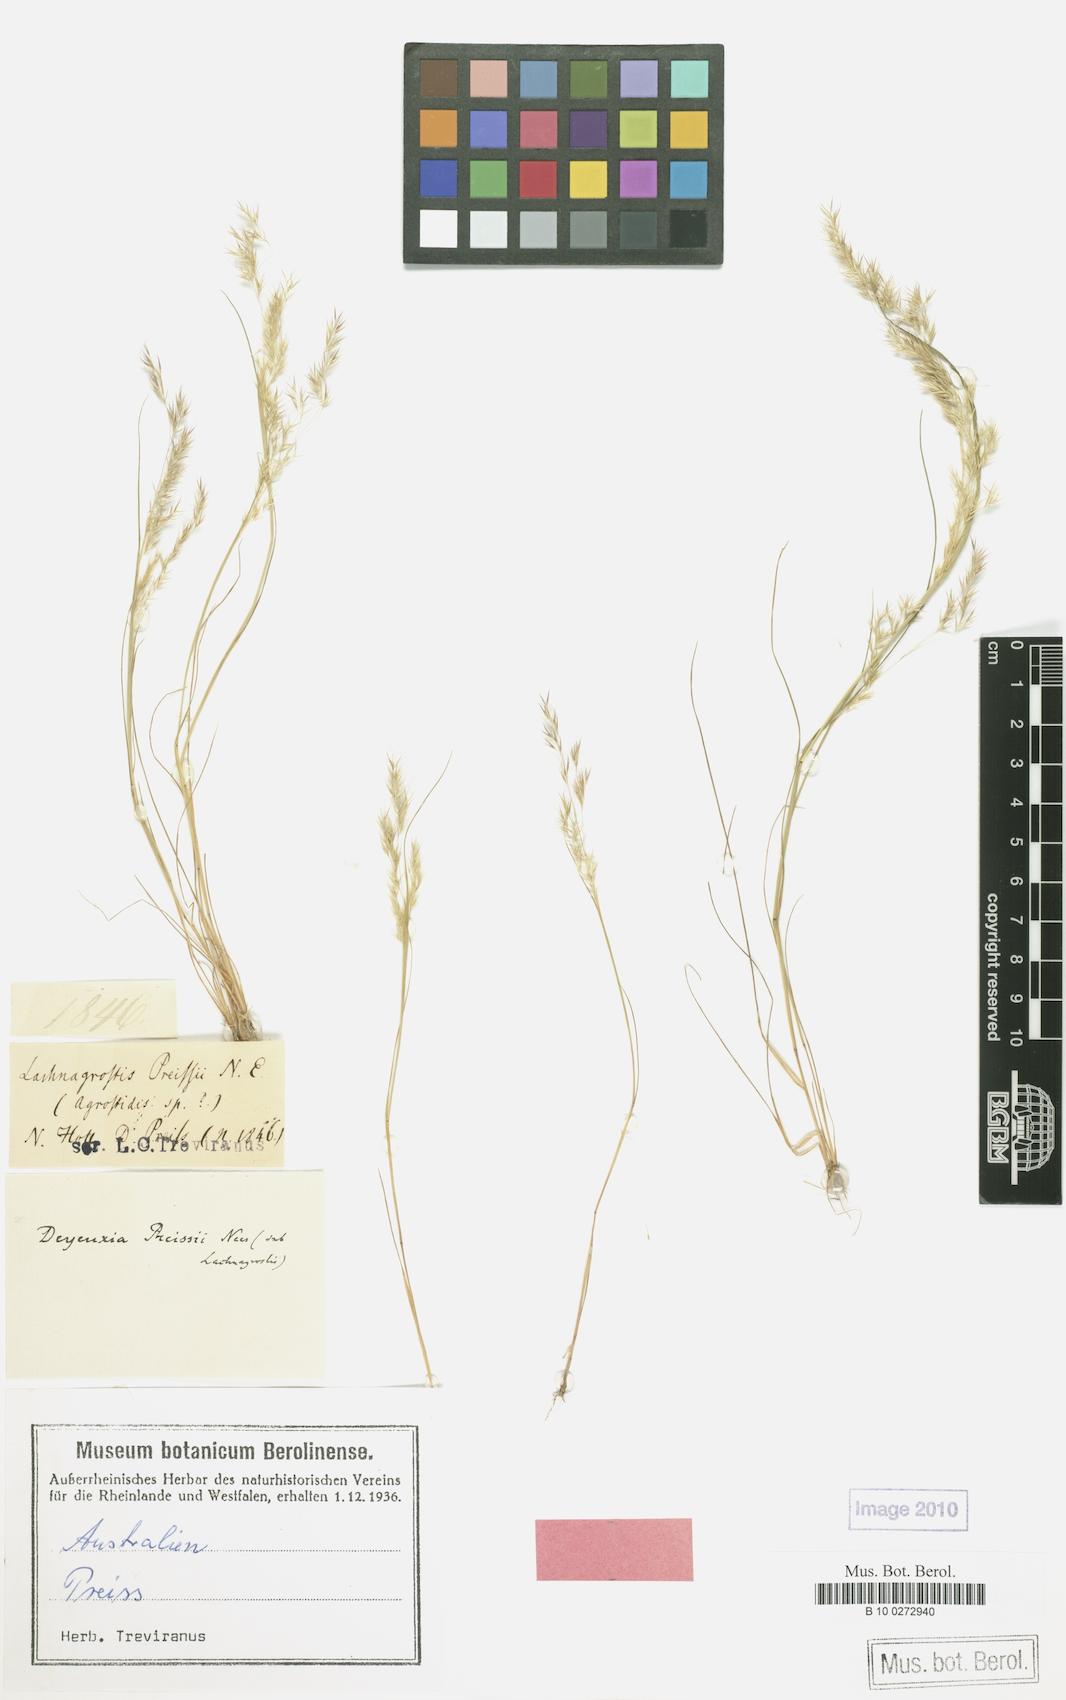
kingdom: Plantae
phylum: Tracheophyta
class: Liliopsida
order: Poales
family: Poaceae
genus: Lachnagrostis
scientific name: Lachnagrostis preissii
